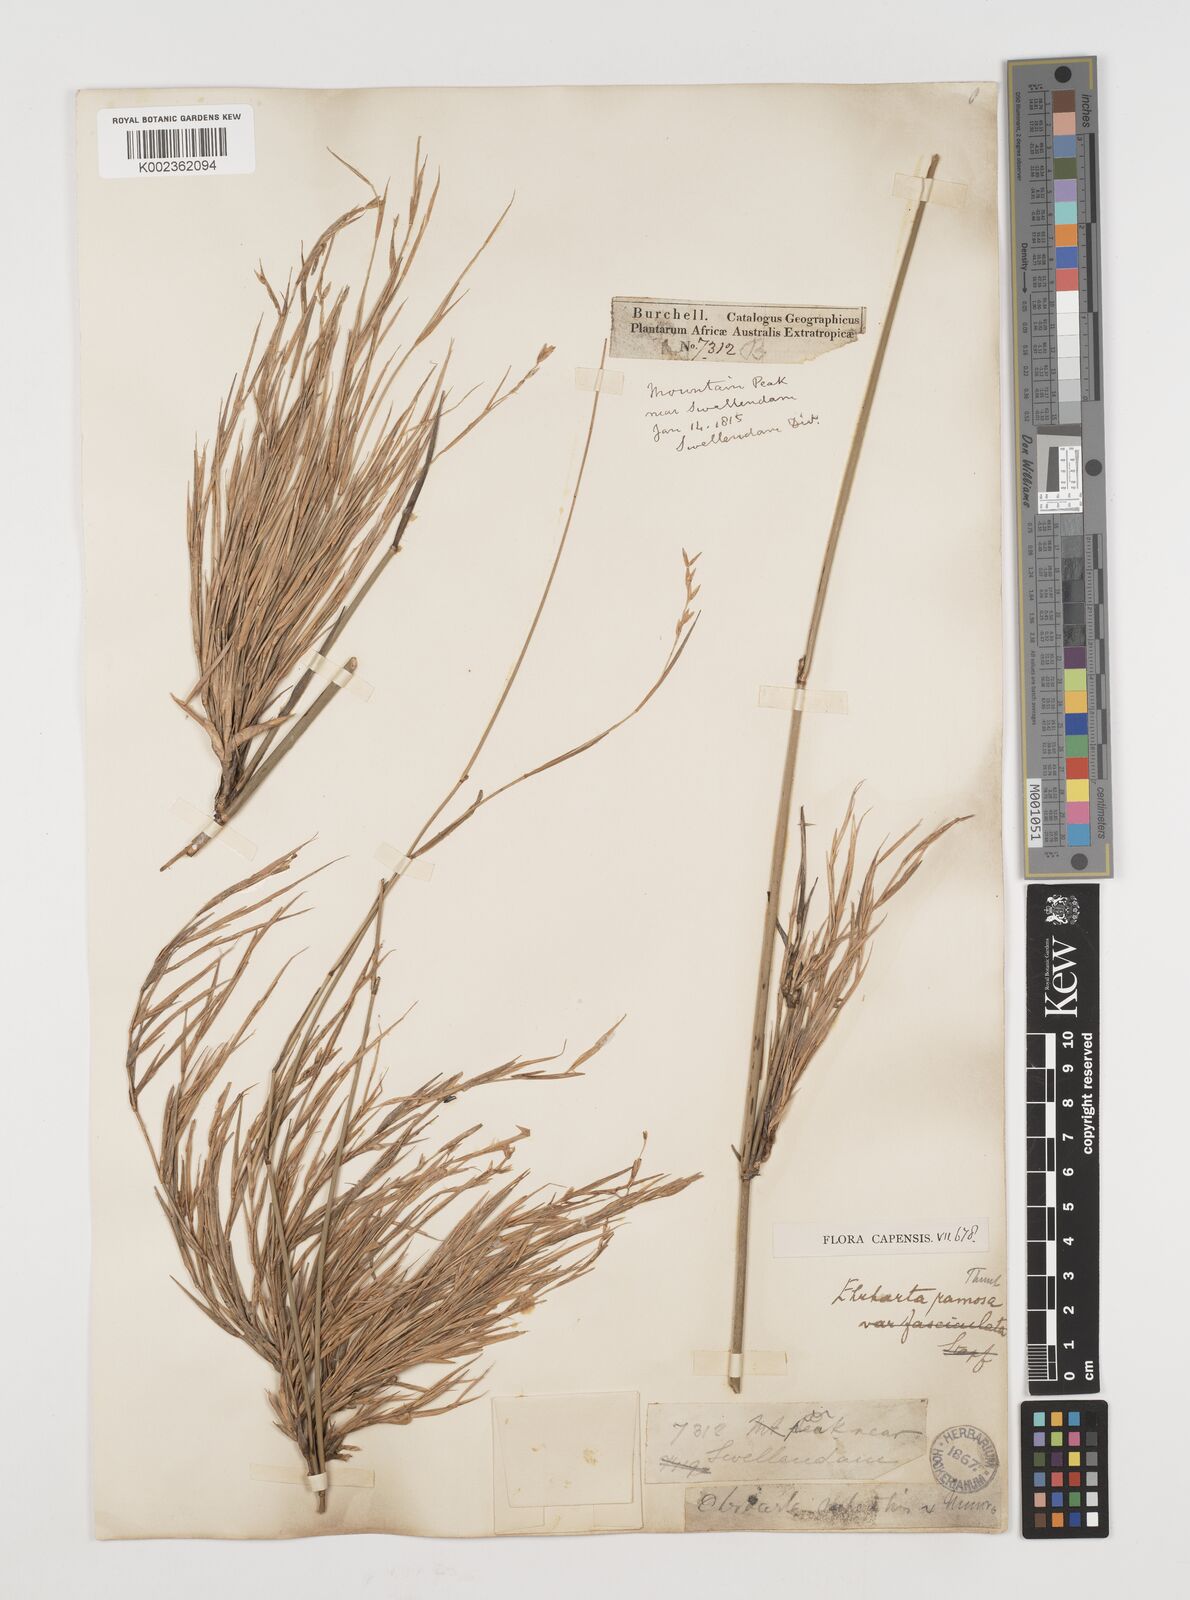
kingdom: Plantae
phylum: Tracheophyta
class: Liliopsida
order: Poales
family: Poaceae
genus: Ehrharta
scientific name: Ehrharta digyna
